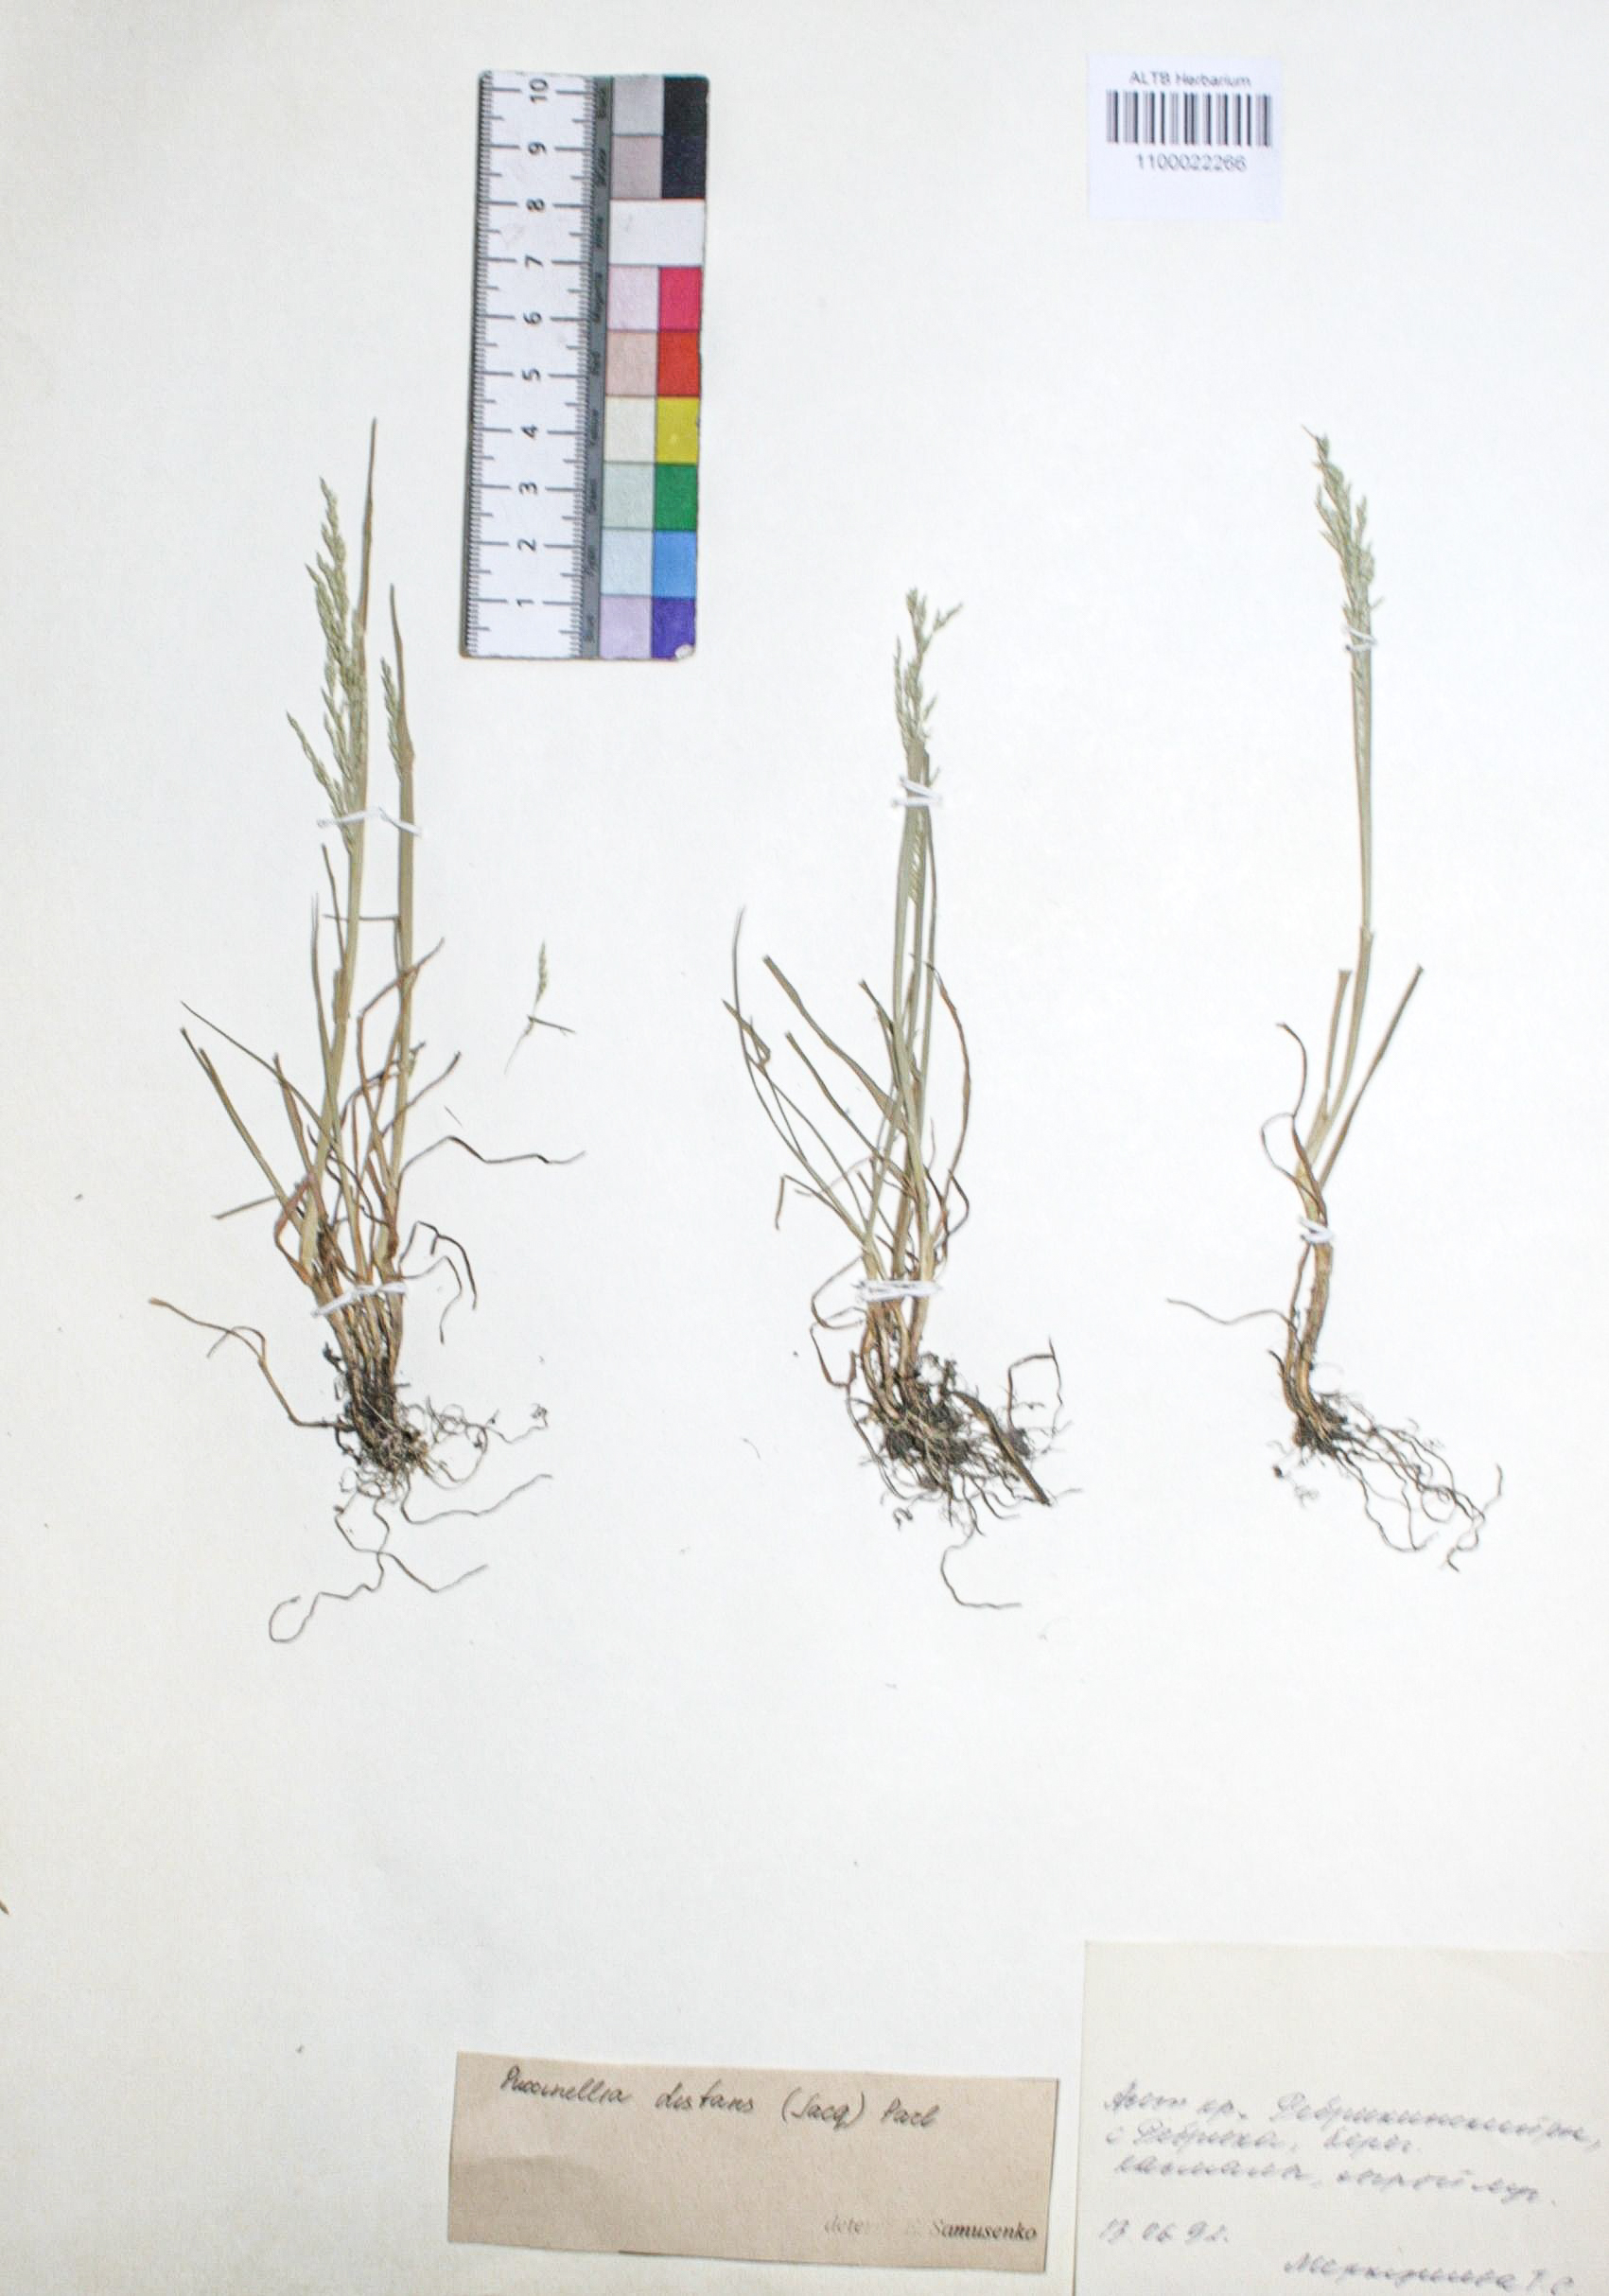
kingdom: Plantae
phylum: Tracheophyta
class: Liliopsida
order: Poales
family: Poaceae
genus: Puccinellia
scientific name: Puccinellia distans
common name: Weeping alkaligrass
